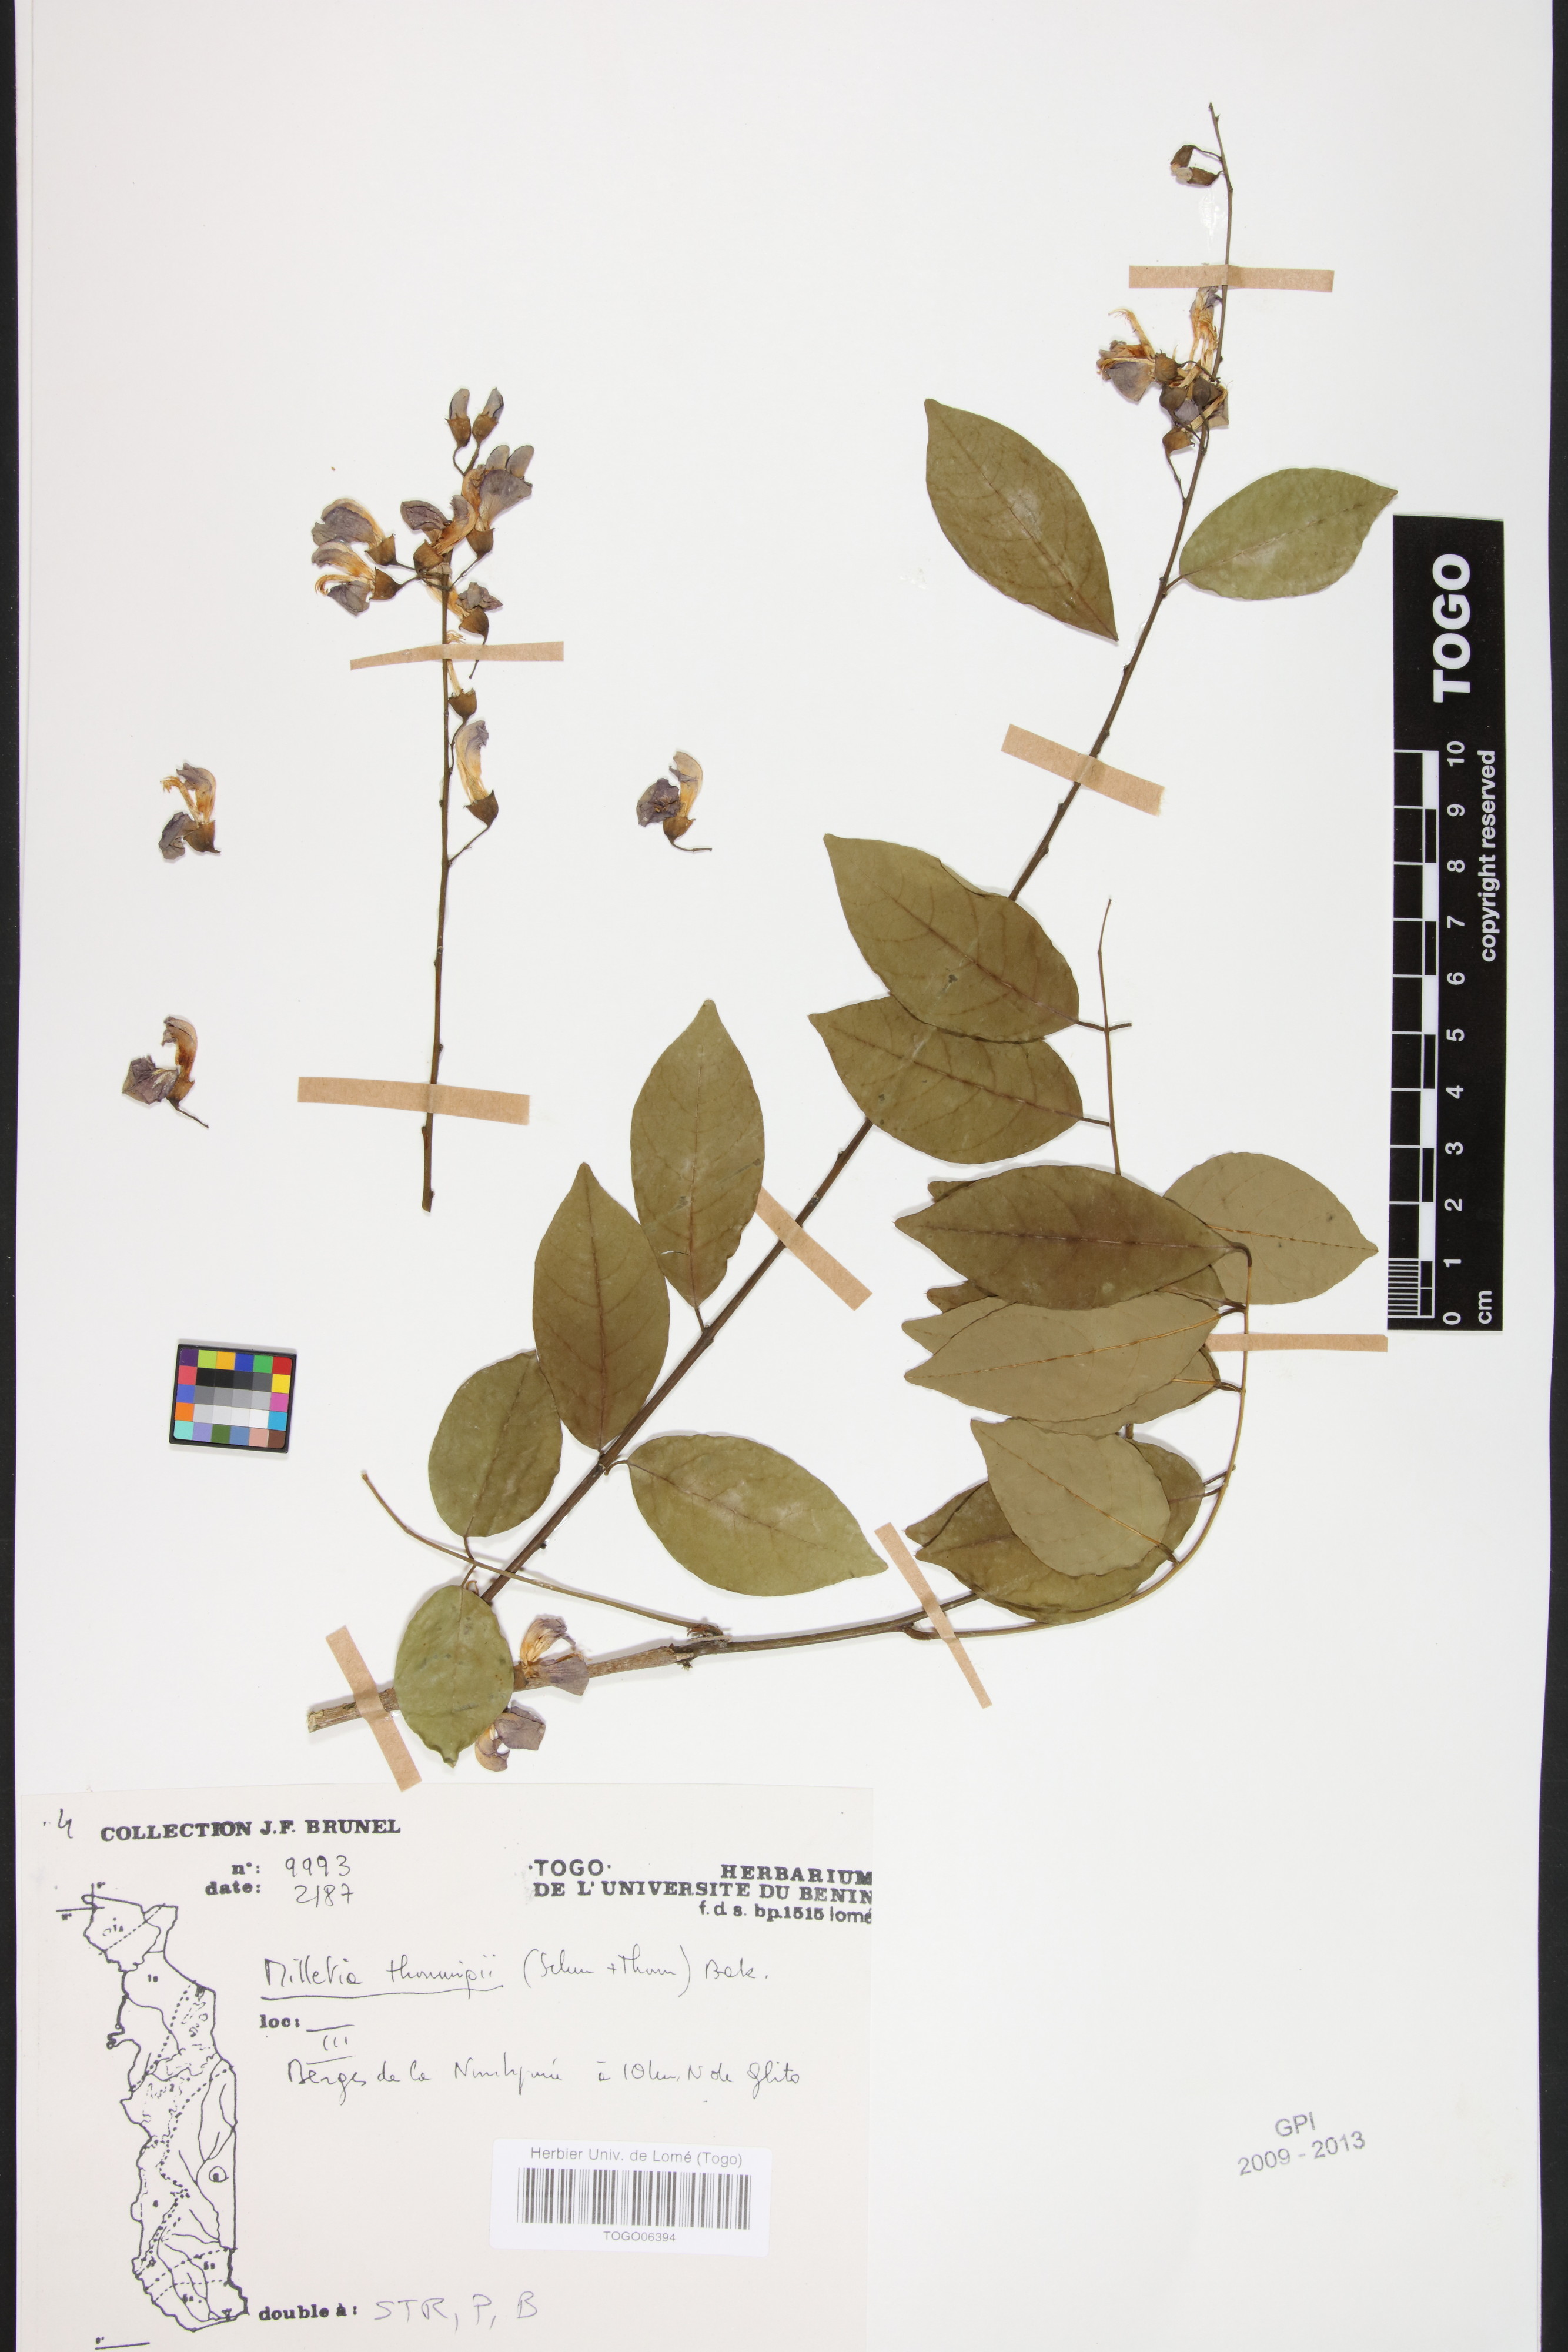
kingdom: Plantae
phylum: Tracheophyta
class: Magnoliopsida
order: Fabales
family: Fabaceae
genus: Millettia
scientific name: Millettia thonningii
